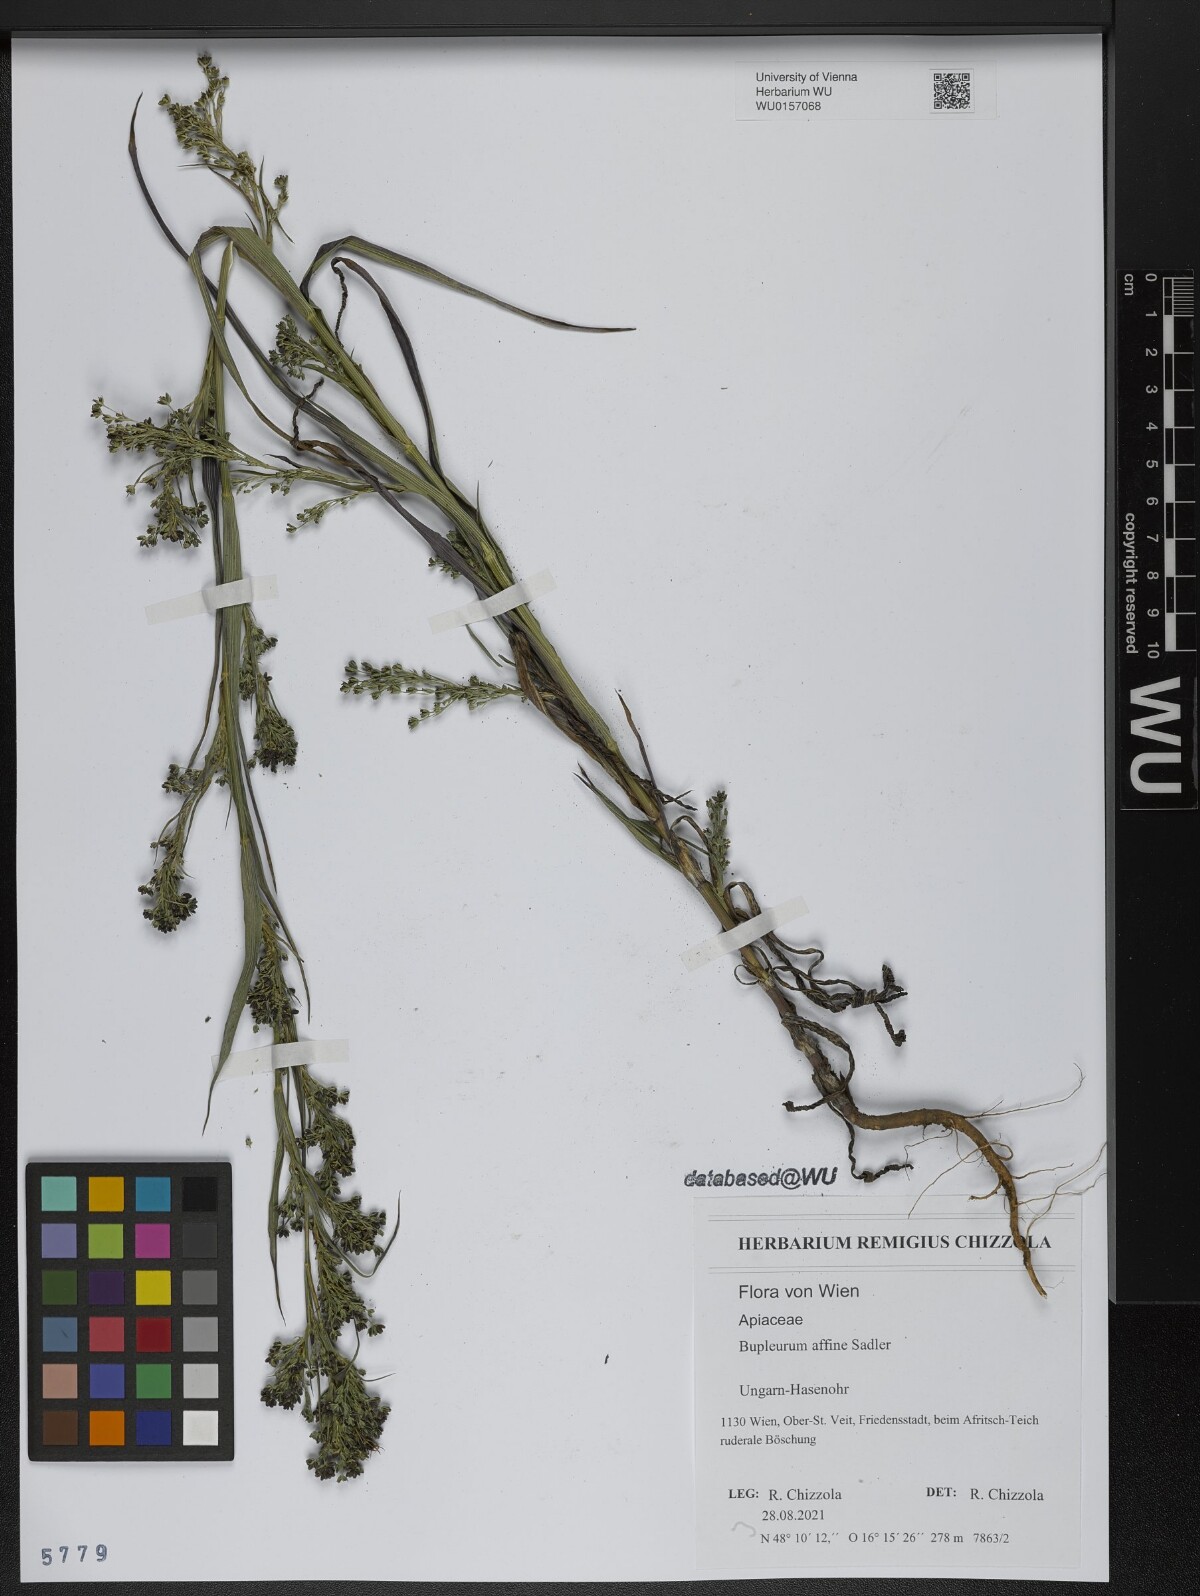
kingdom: Plantae
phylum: Tracheophyta
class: Magnoliopsida
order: Apiales
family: Apiaceae
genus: Bupleurum
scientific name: Bupleurum affine
